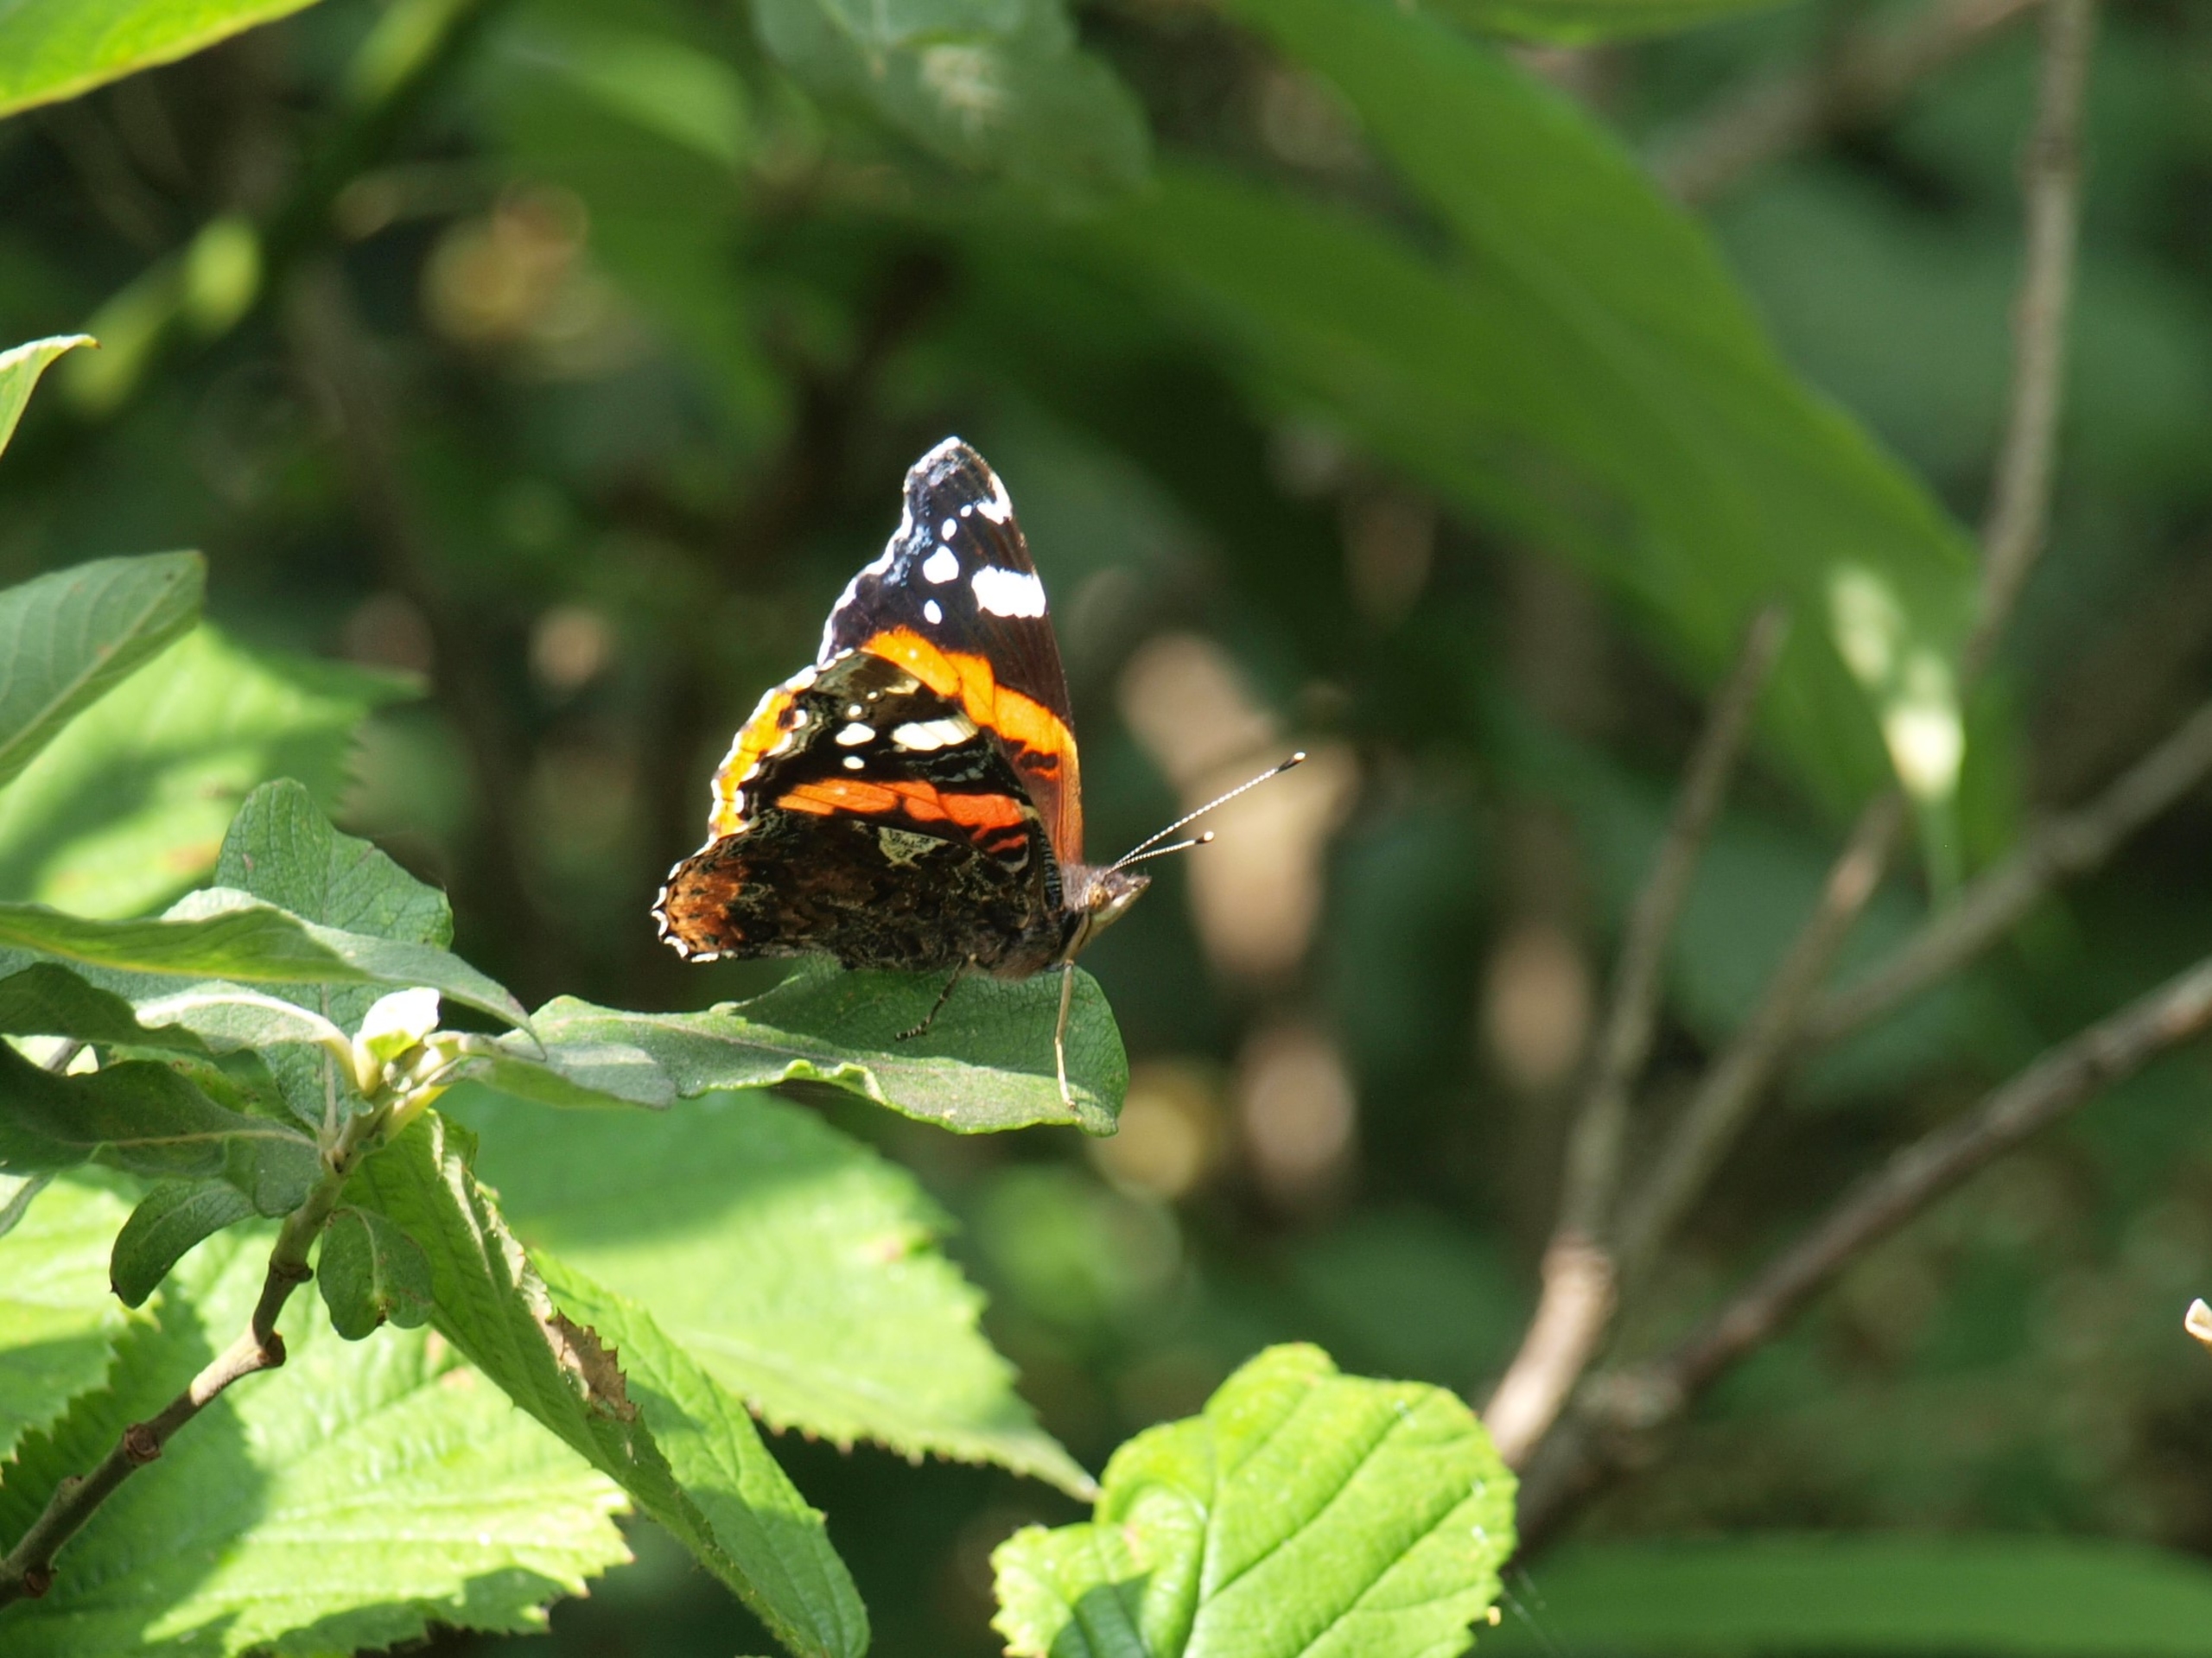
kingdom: Animalia
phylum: Arthropoda
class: Insecta
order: Lepidoptera
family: Nymphalidae
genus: Vanessa
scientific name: Vanessa atalanta
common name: Admiral
